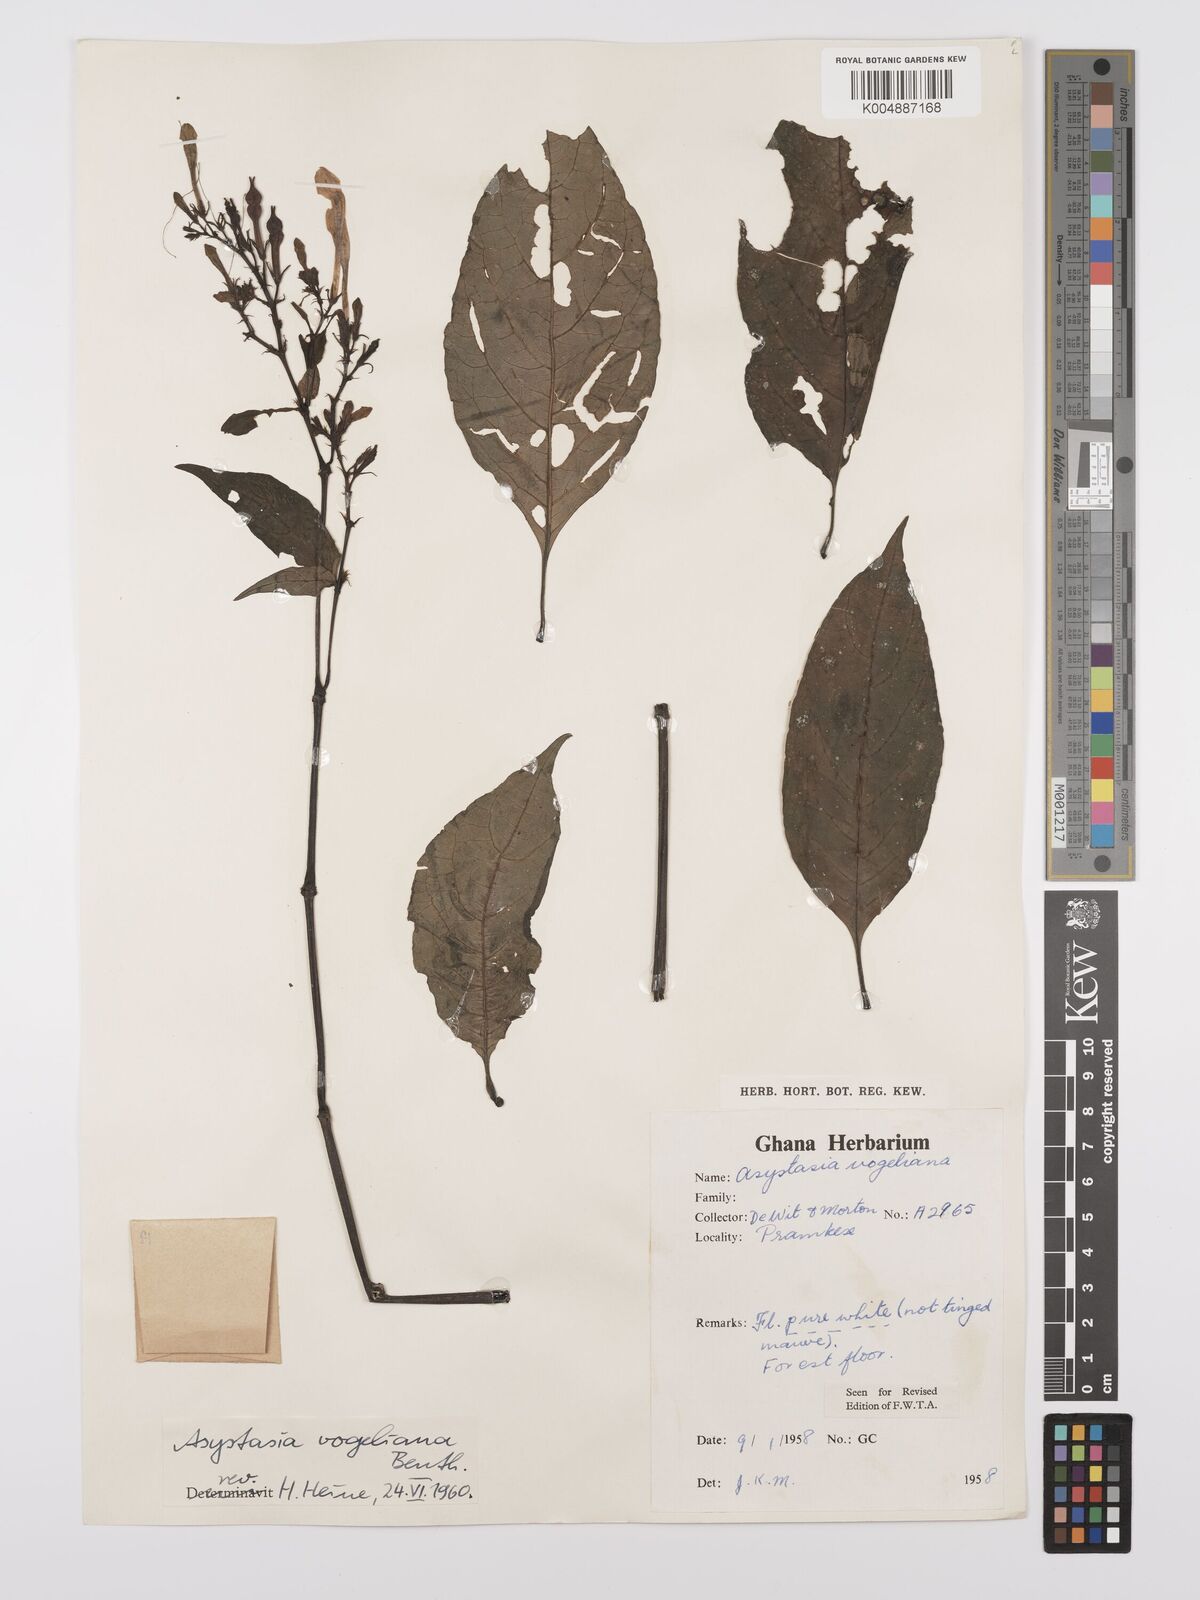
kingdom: Plantae
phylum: Tracheophyta
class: Magnoliopsida
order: Lamiales
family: Acanthaceae
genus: Asystasia
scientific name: Asystasia vogeliana
